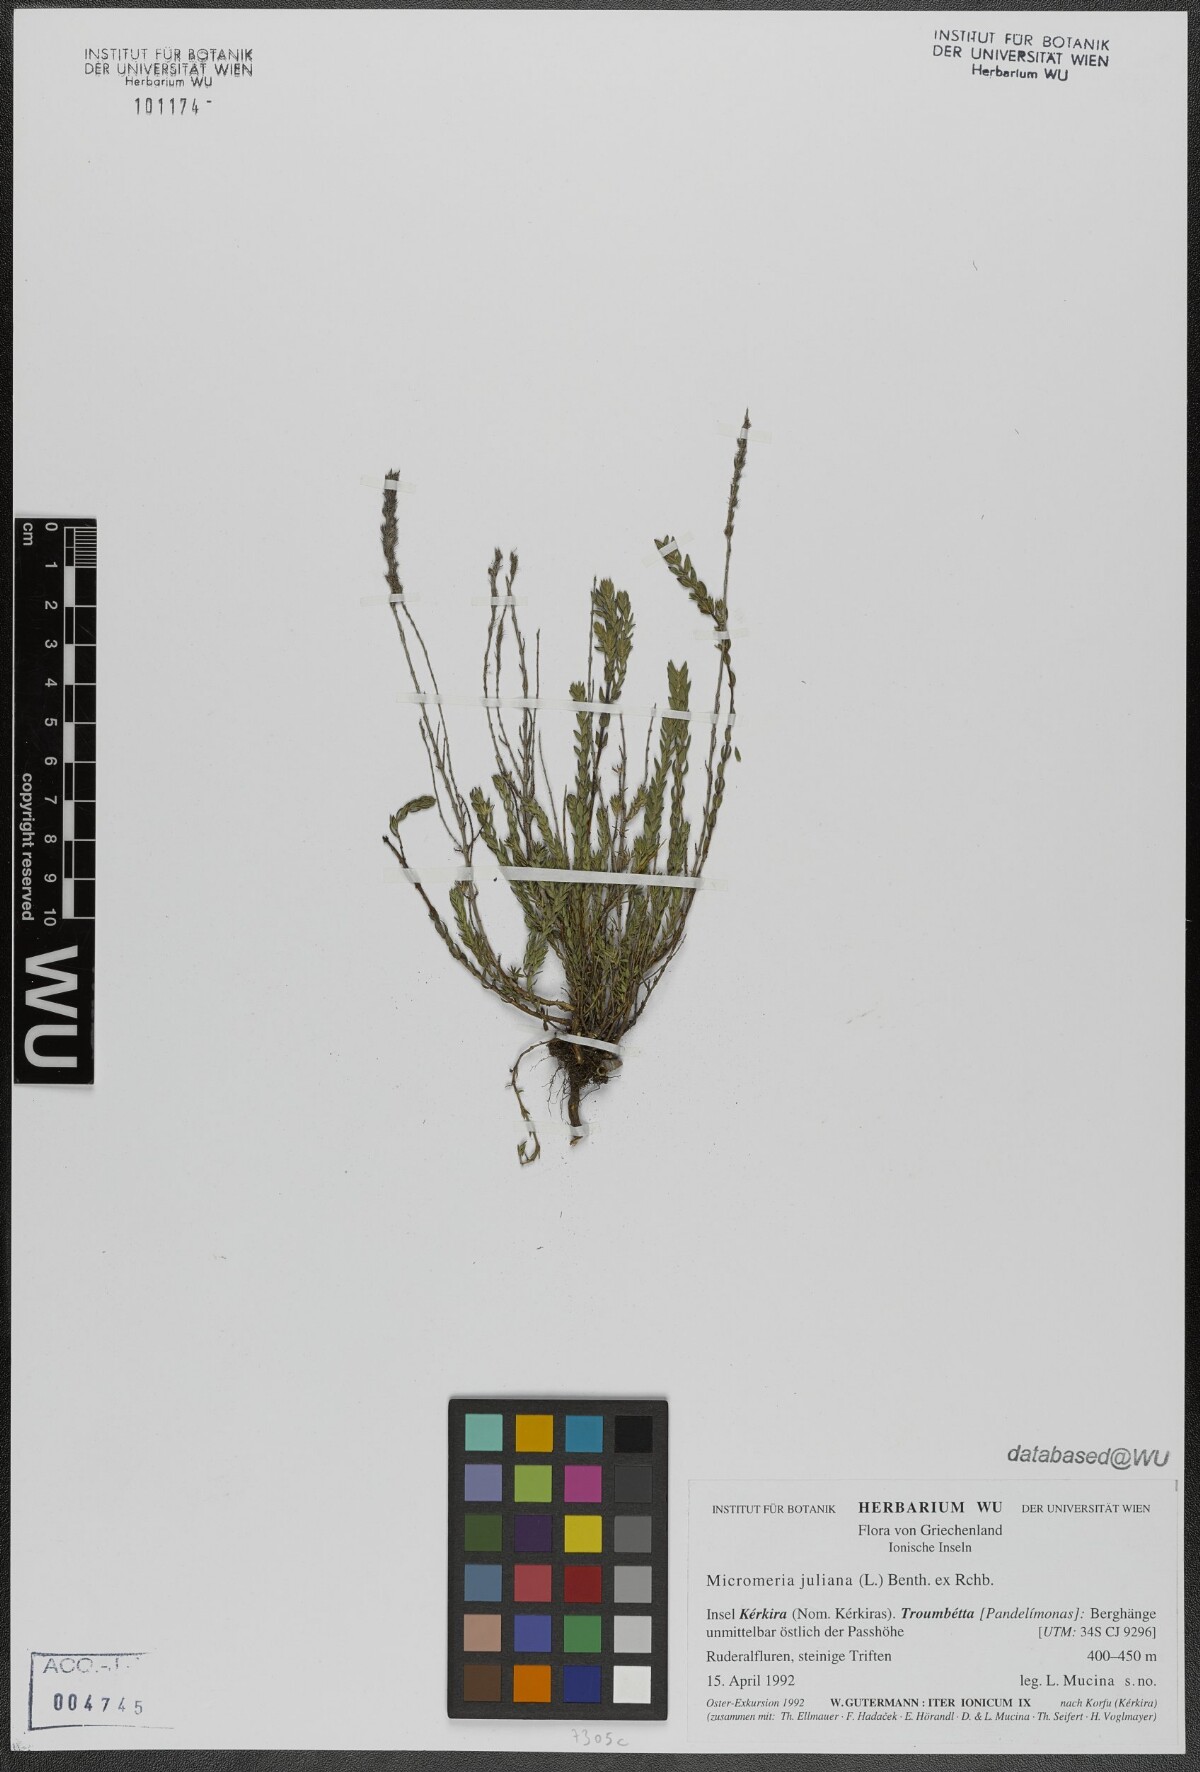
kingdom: Plantae
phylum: Tracheophyta
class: Magnoliopsida
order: Lamiales
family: Lamiaceae
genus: Micromeria
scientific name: Micromeria juliana
